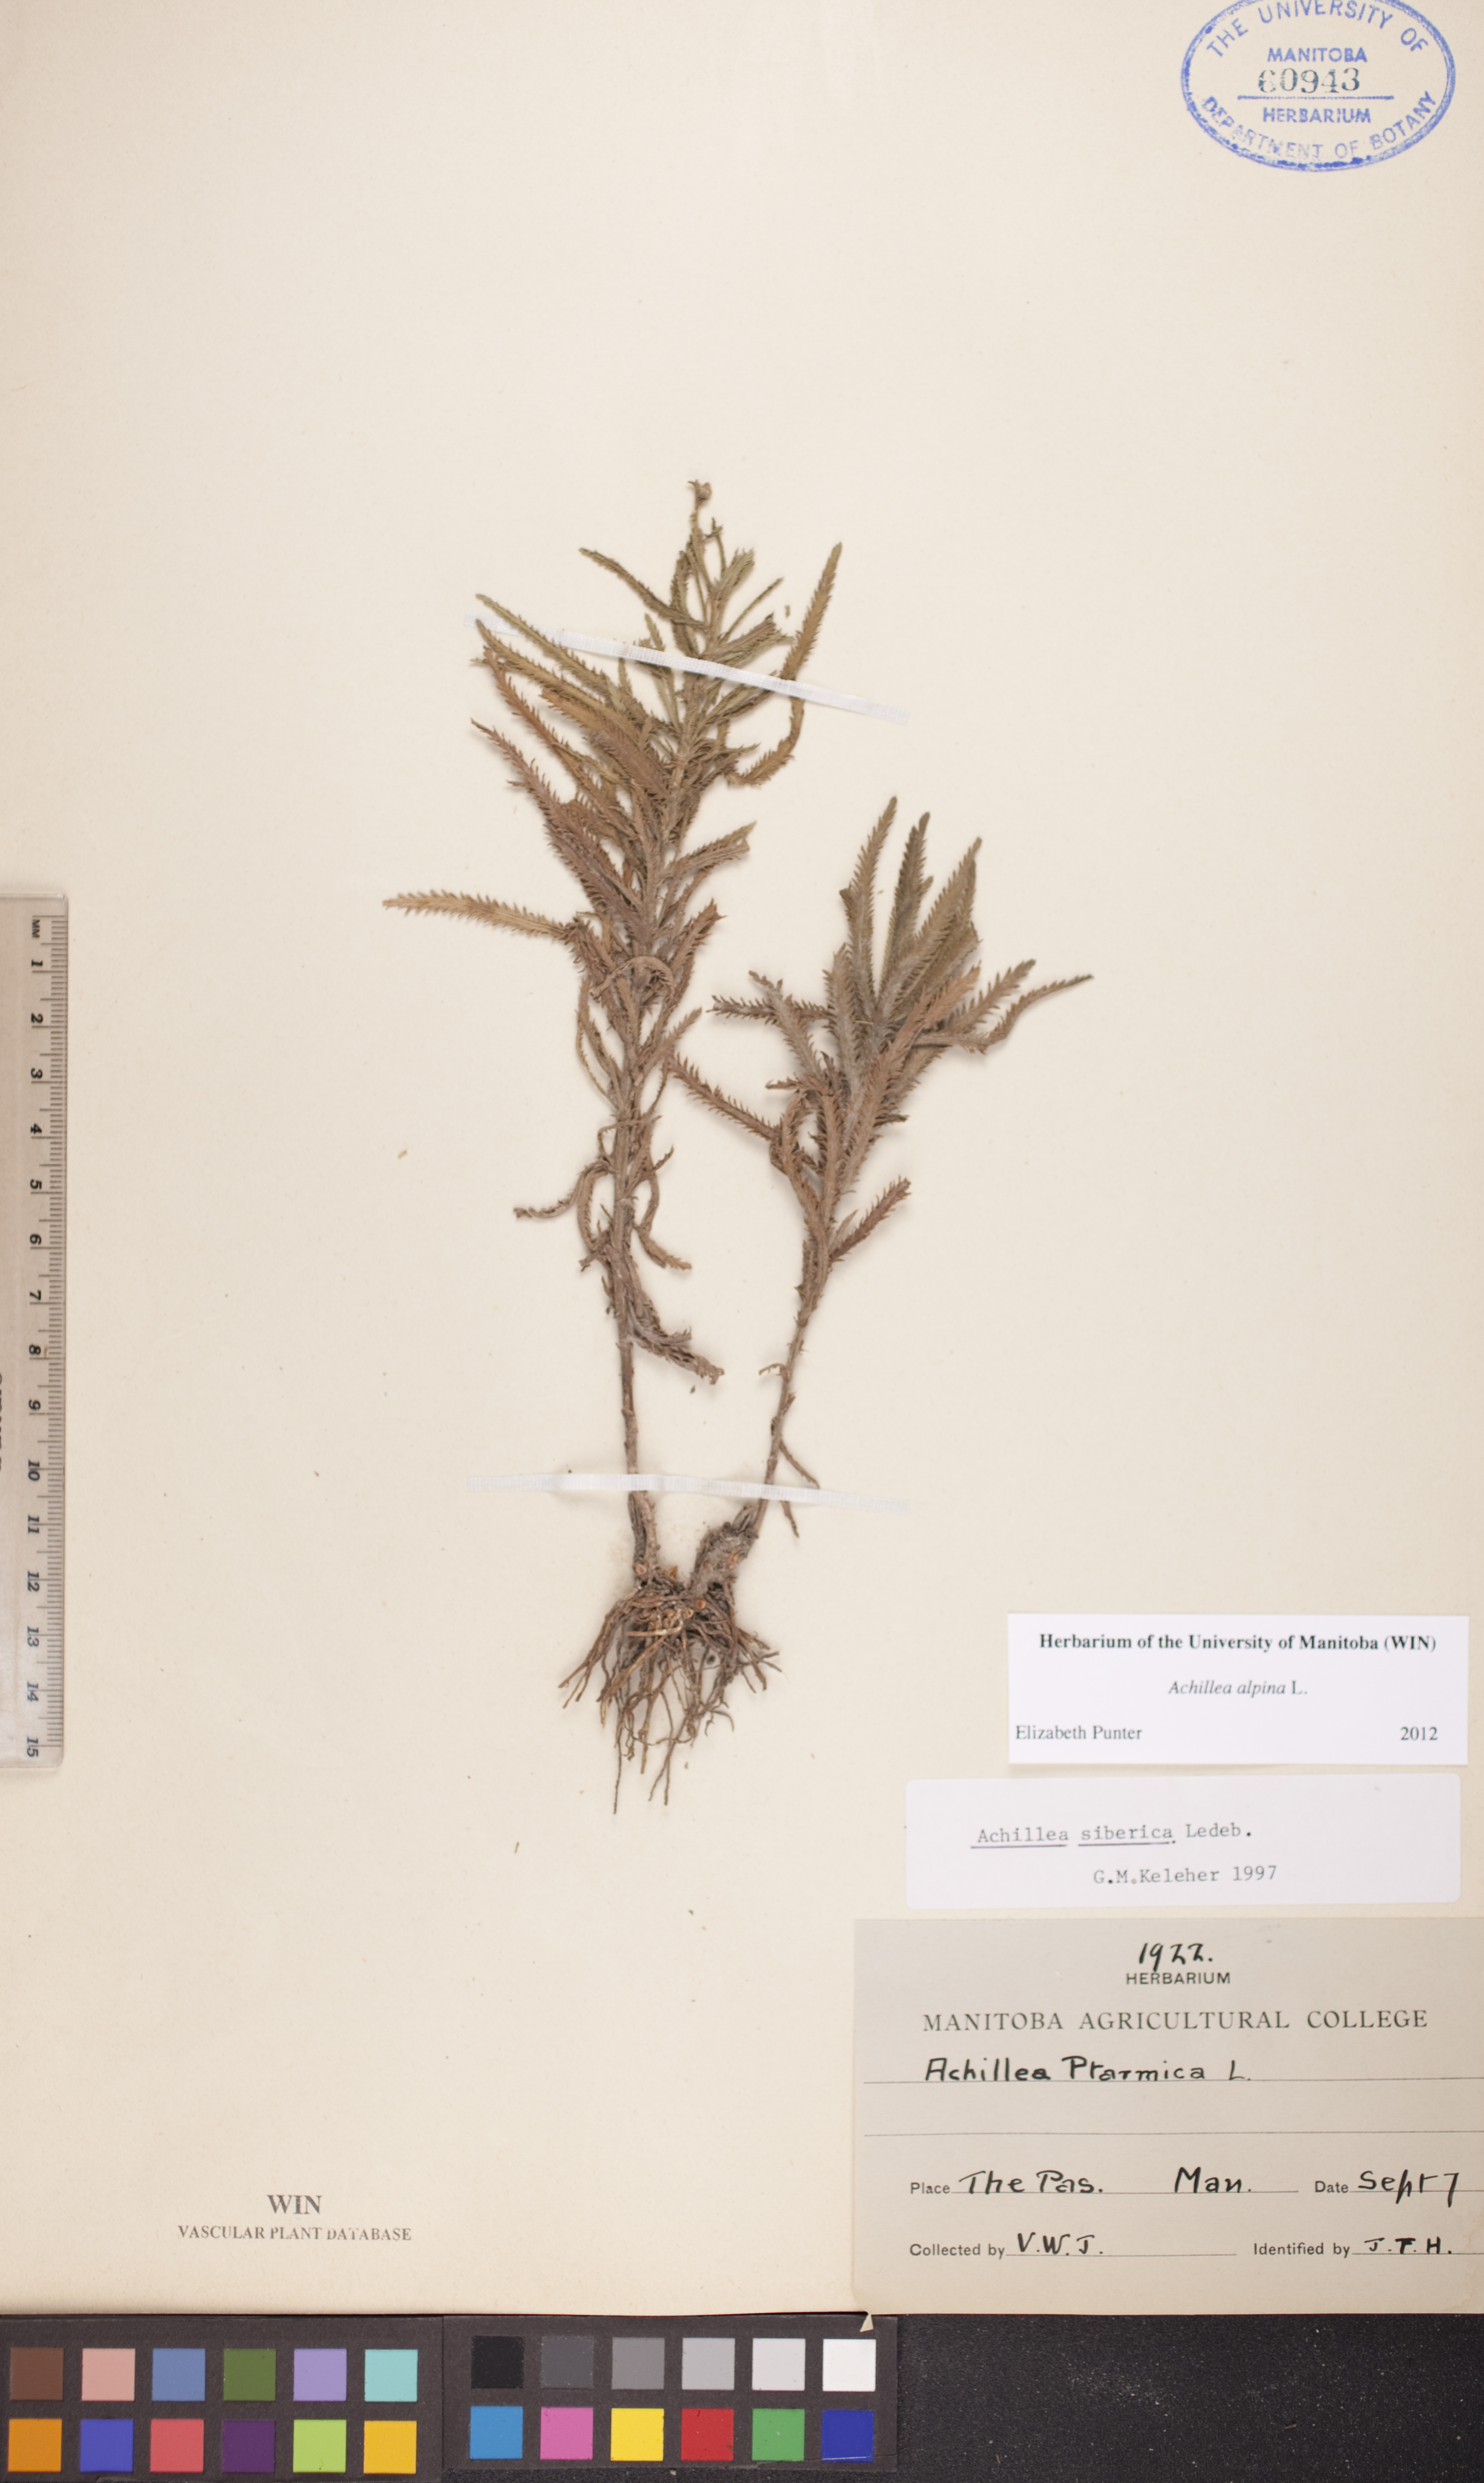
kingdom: Plantae
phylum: Tracheophyta
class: Magnoliopsida
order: Asterales
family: Asteraceae
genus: Achillea
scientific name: Achillea alpina
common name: Siberian yarrow
